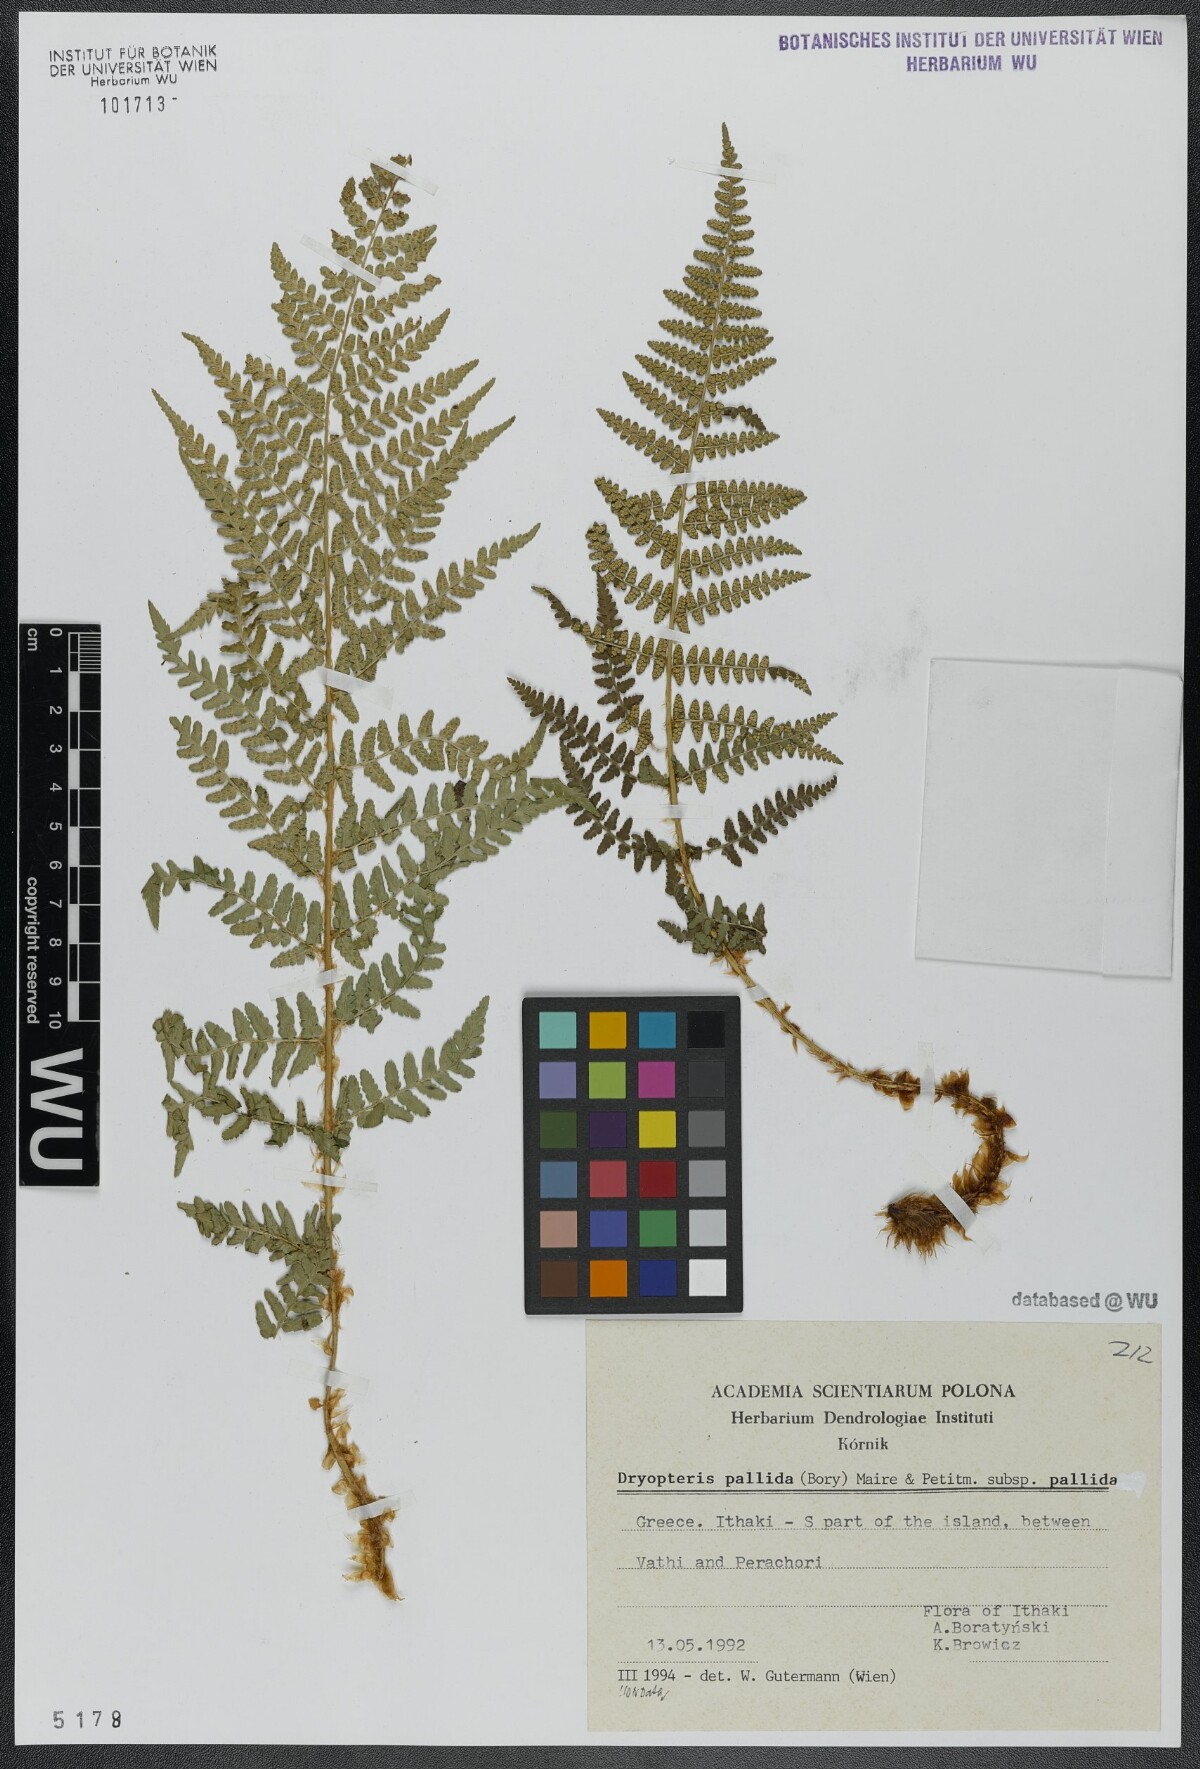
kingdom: Plantae
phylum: Tracheophyta
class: Polypodiopsida
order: Polypodiales
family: Dryopteridaceae
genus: Dryopteris
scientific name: Dryopteris pallida
